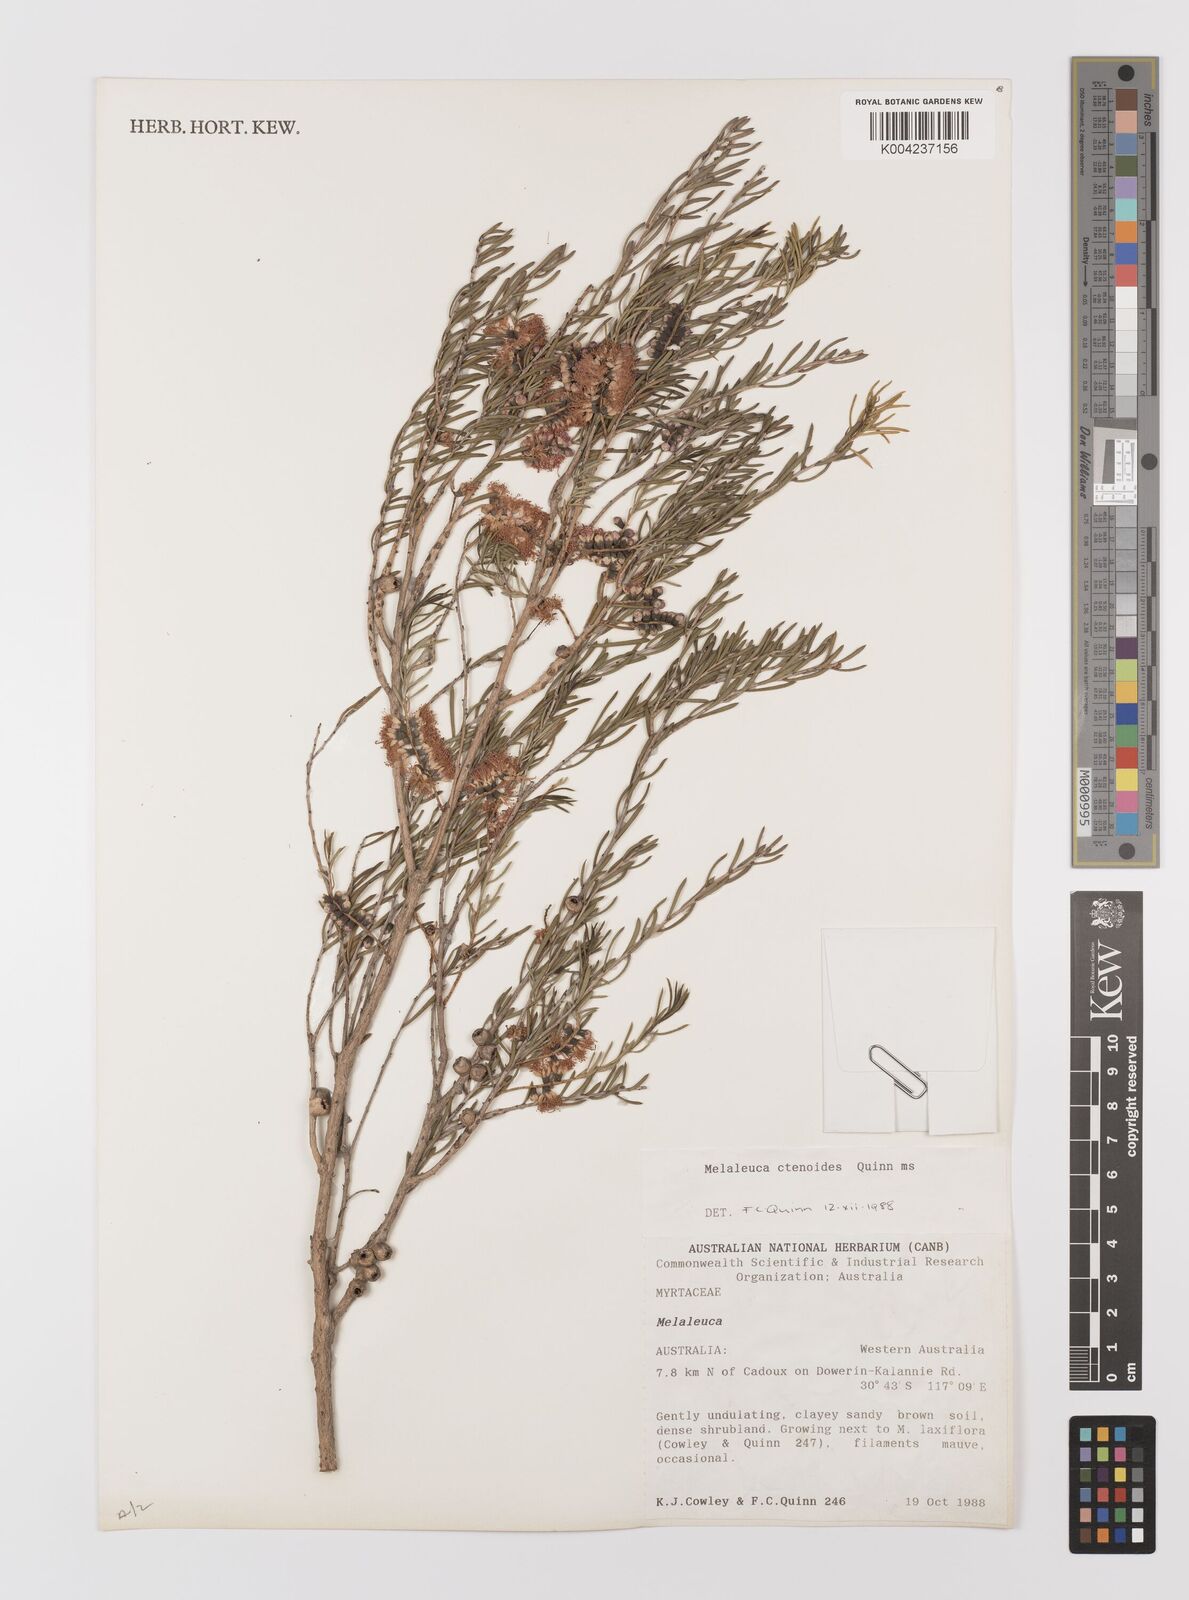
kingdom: Plantae
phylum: Tracheophyta
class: Magnoliopsida
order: Myrtales
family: Myrtaceae
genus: Melaleuca
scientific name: Melaleuca ctenoides
